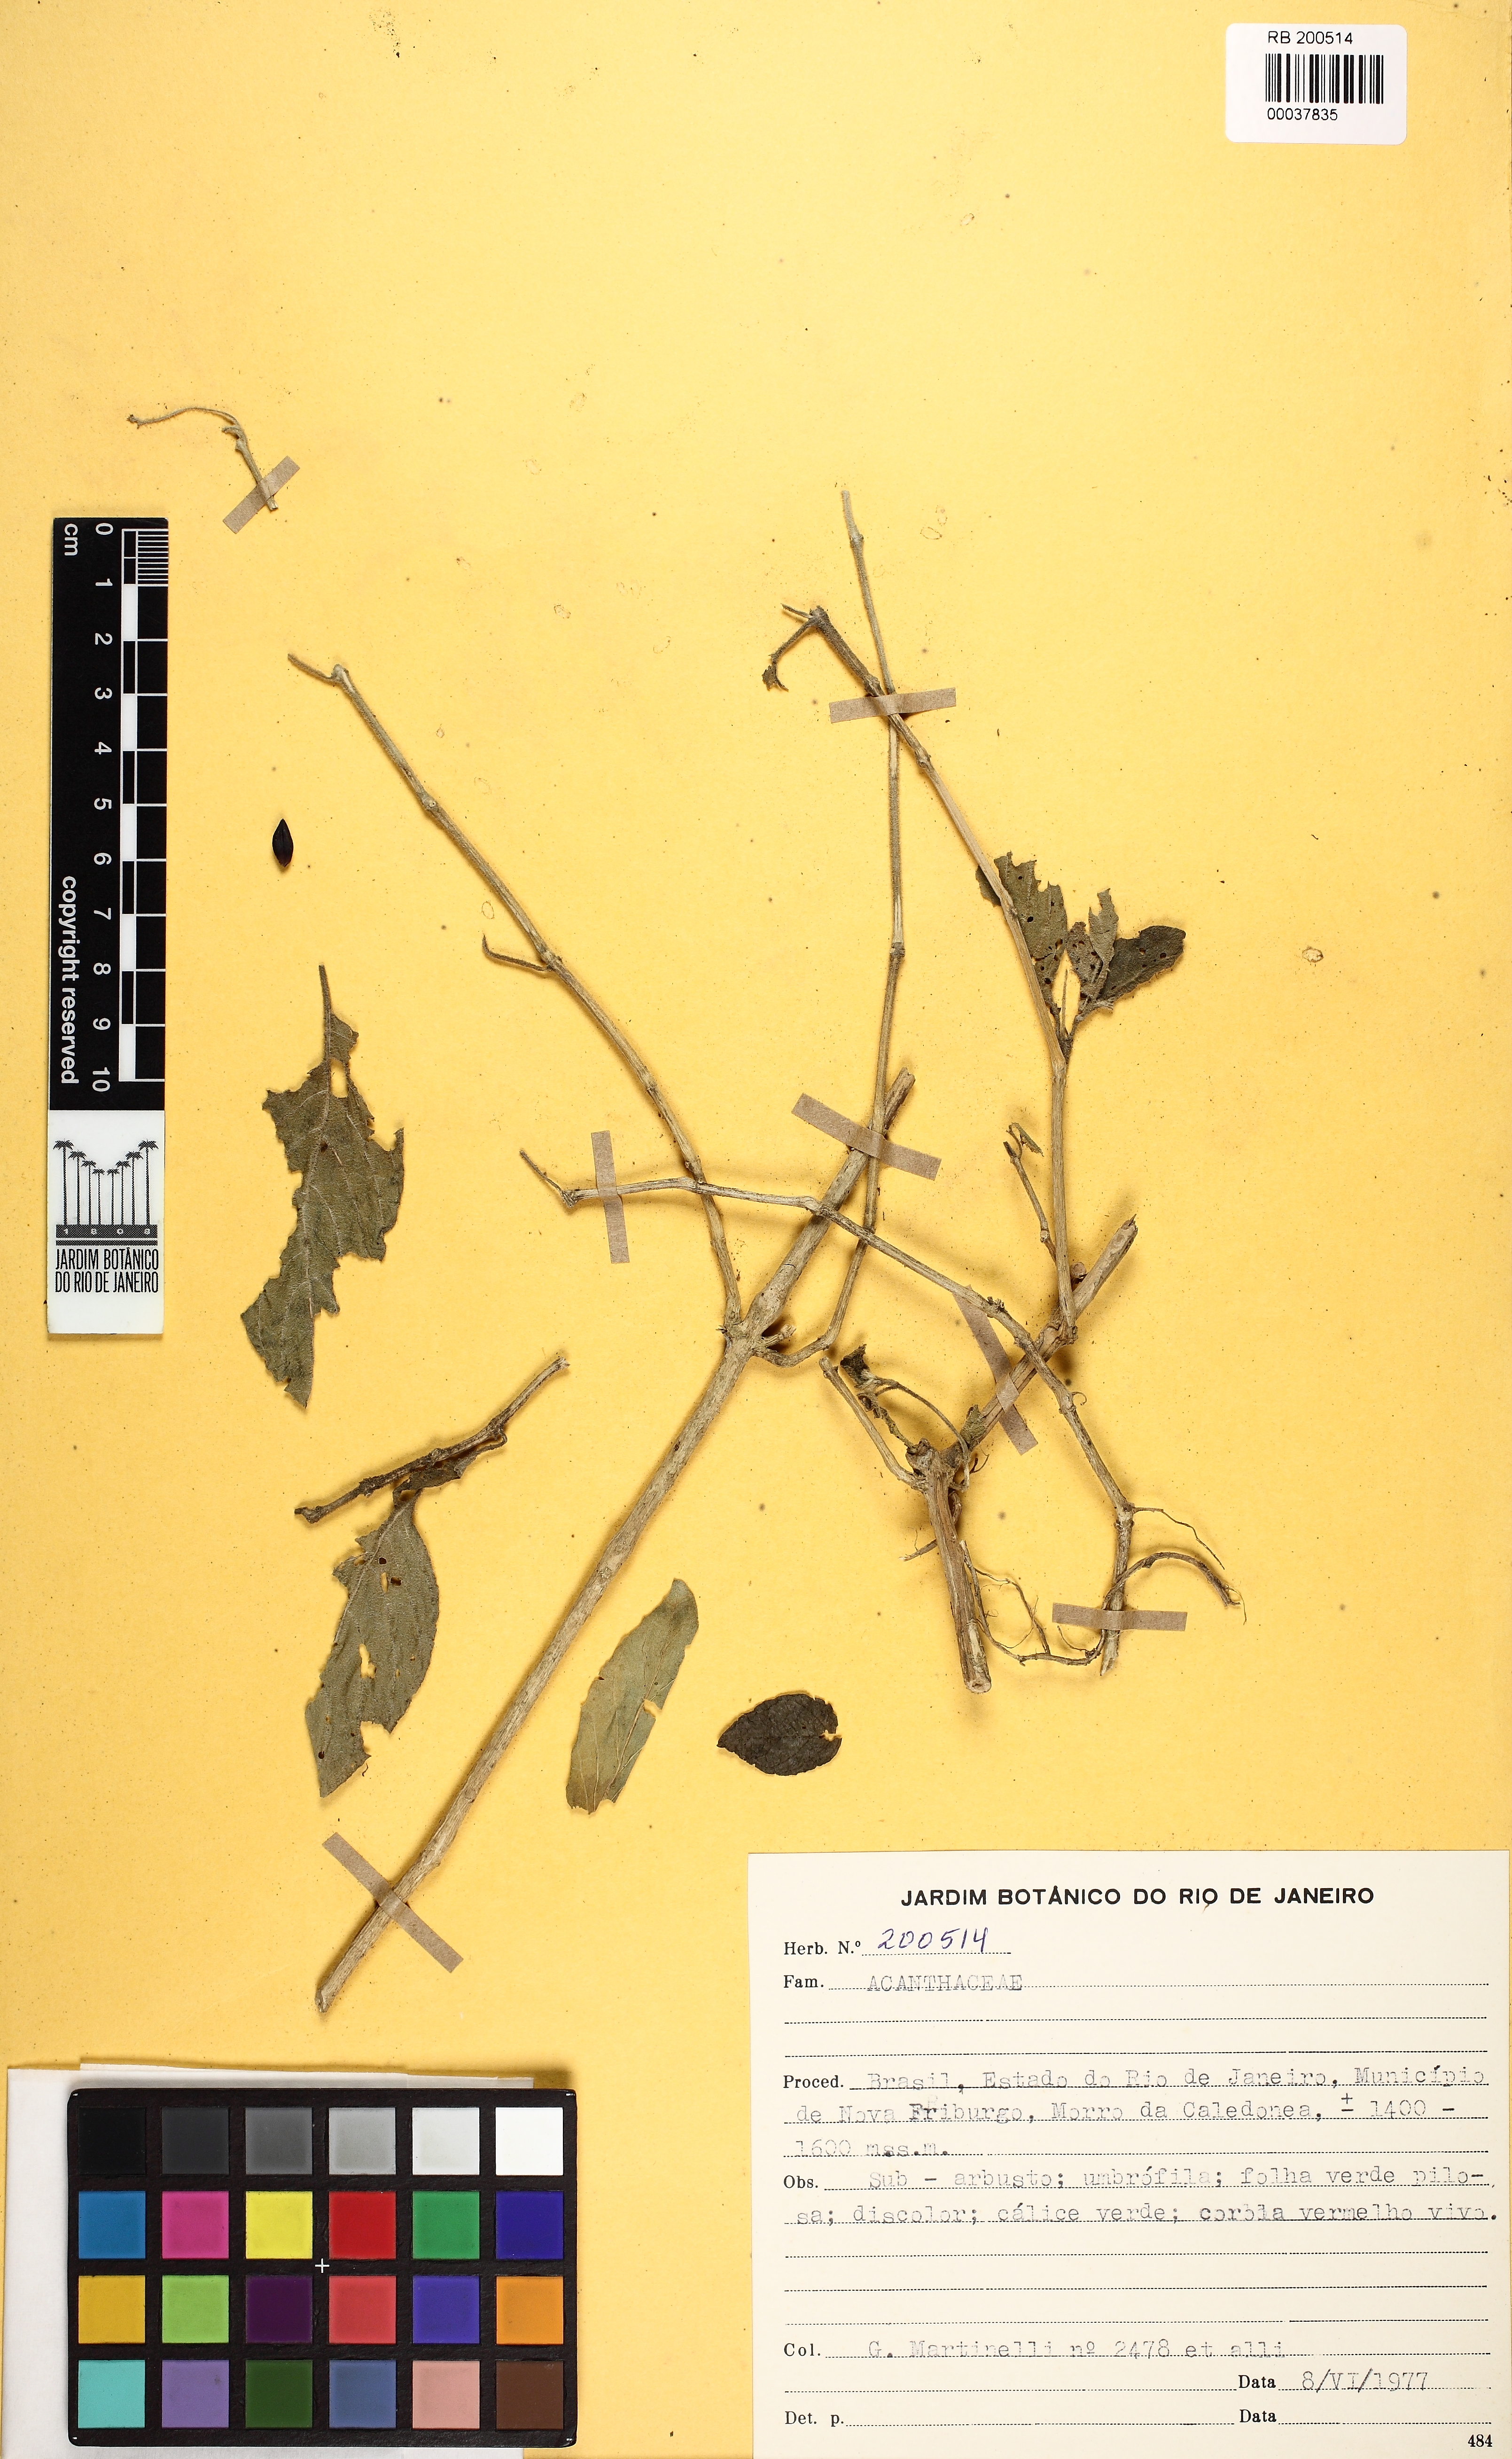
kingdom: Plantae
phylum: Tracheophyta
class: Magnoliopsida
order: Lamiales
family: Acanthaceae
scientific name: Acanthaceae
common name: Acanthaceae
